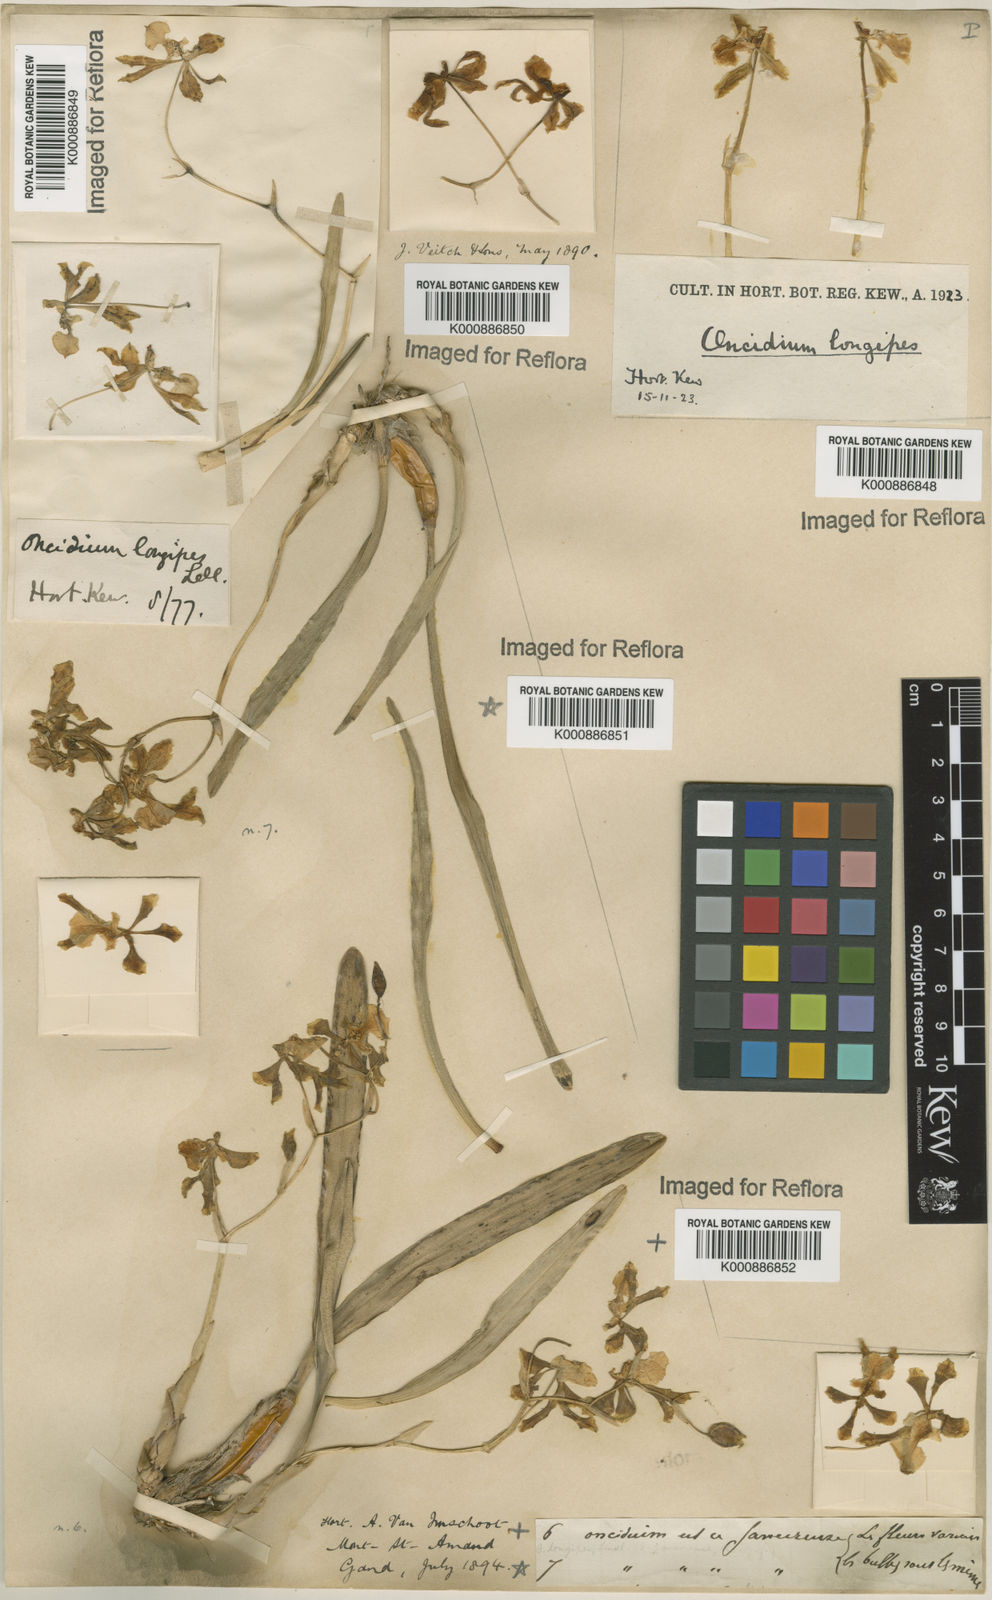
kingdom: Plantae
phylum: Tracheophyta
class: Liliopsida
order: Asparagales
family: Orchidaceae
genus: Gomesa
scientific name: Gomesa uniflora
